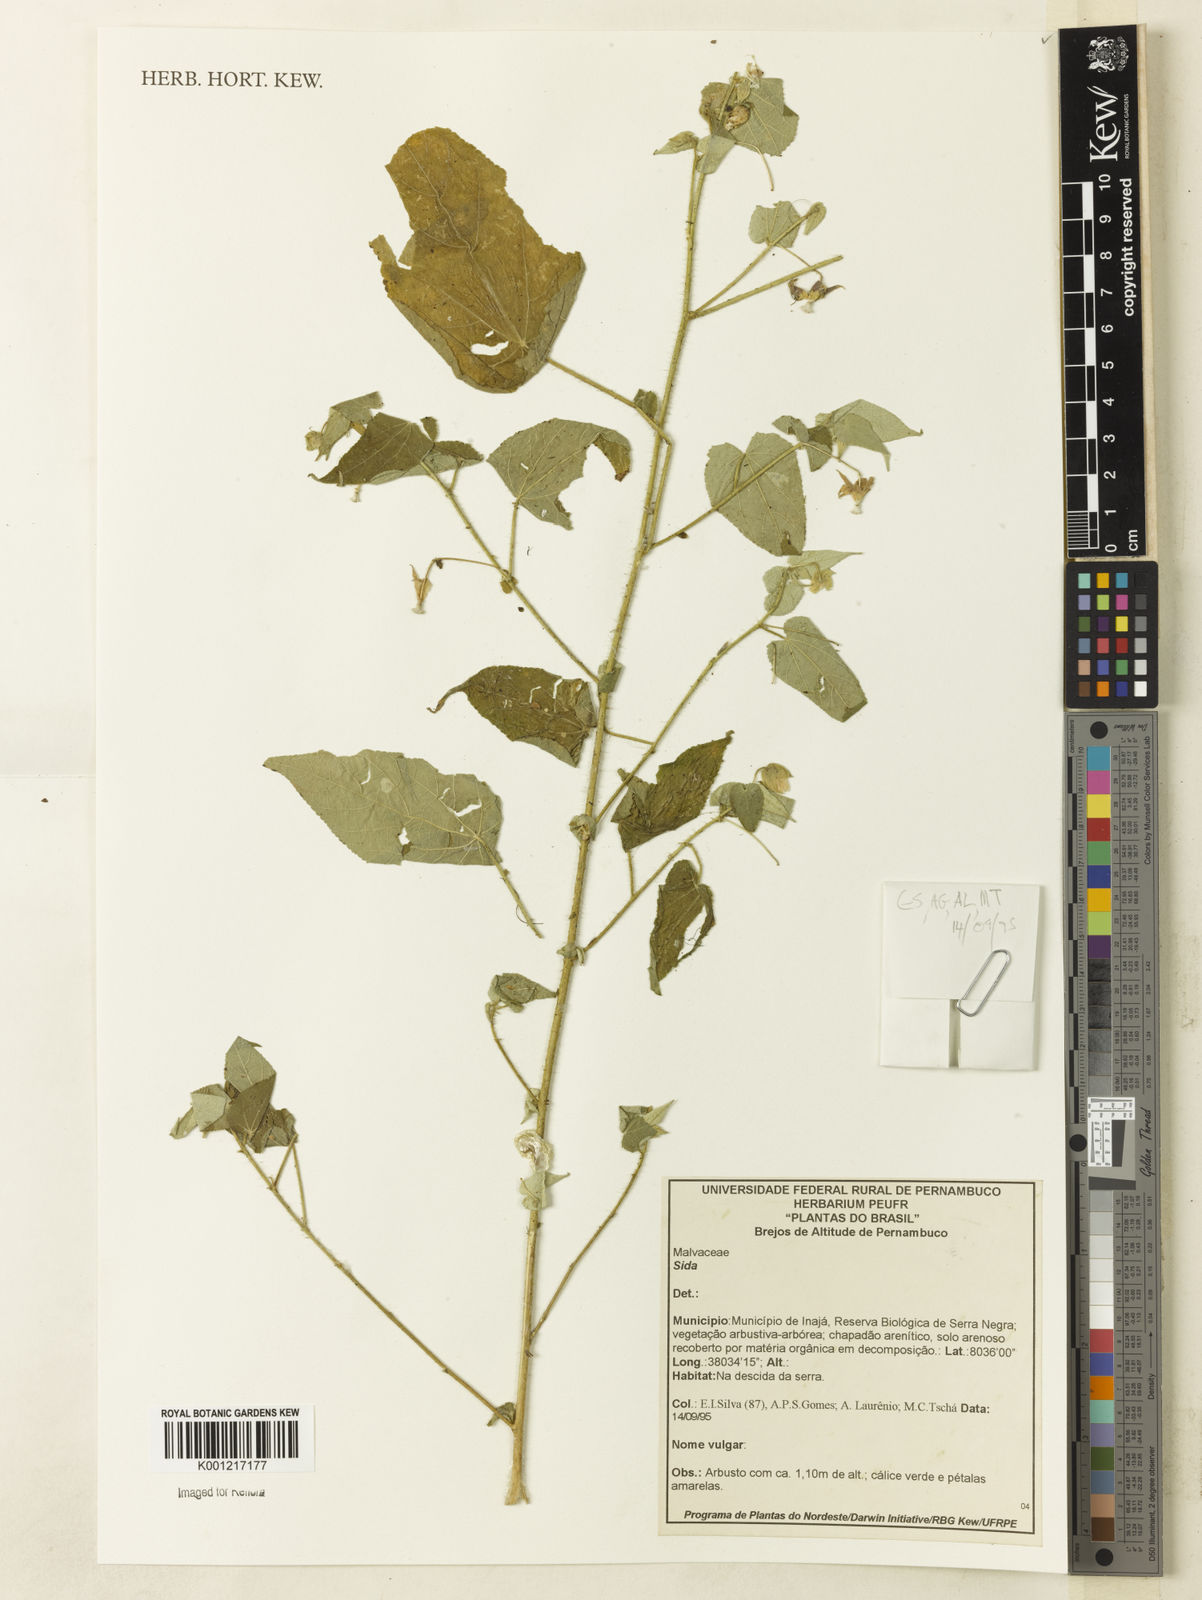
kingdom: Plantae
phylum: Tracheophyta
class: Magnoliopsida
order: Malvales
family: Malvaceae
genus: Sida
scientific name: Sida
